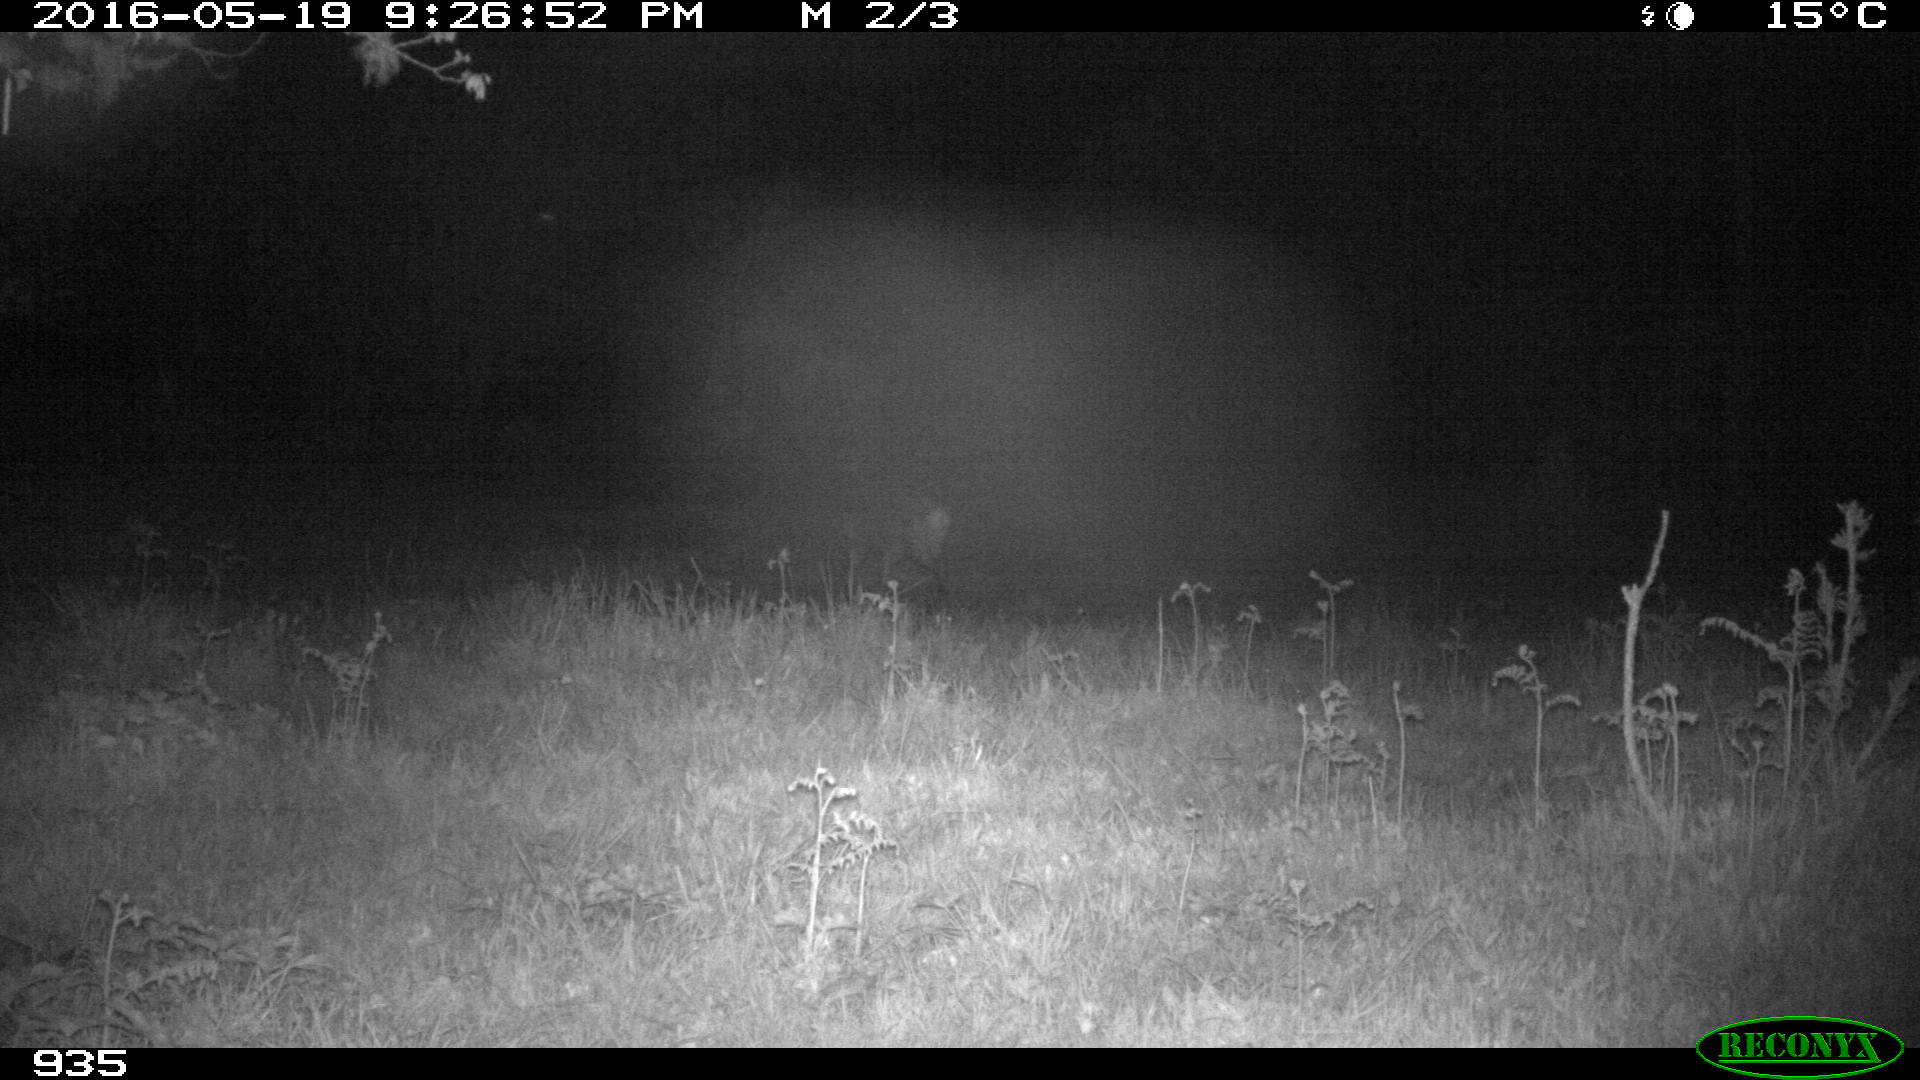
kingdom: Animalia
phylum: Chordata
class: Mammalia
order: Artiodactyla
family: Cervidae
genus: Capreolus
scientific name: Capreolus capreolus
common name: Western roe deer
